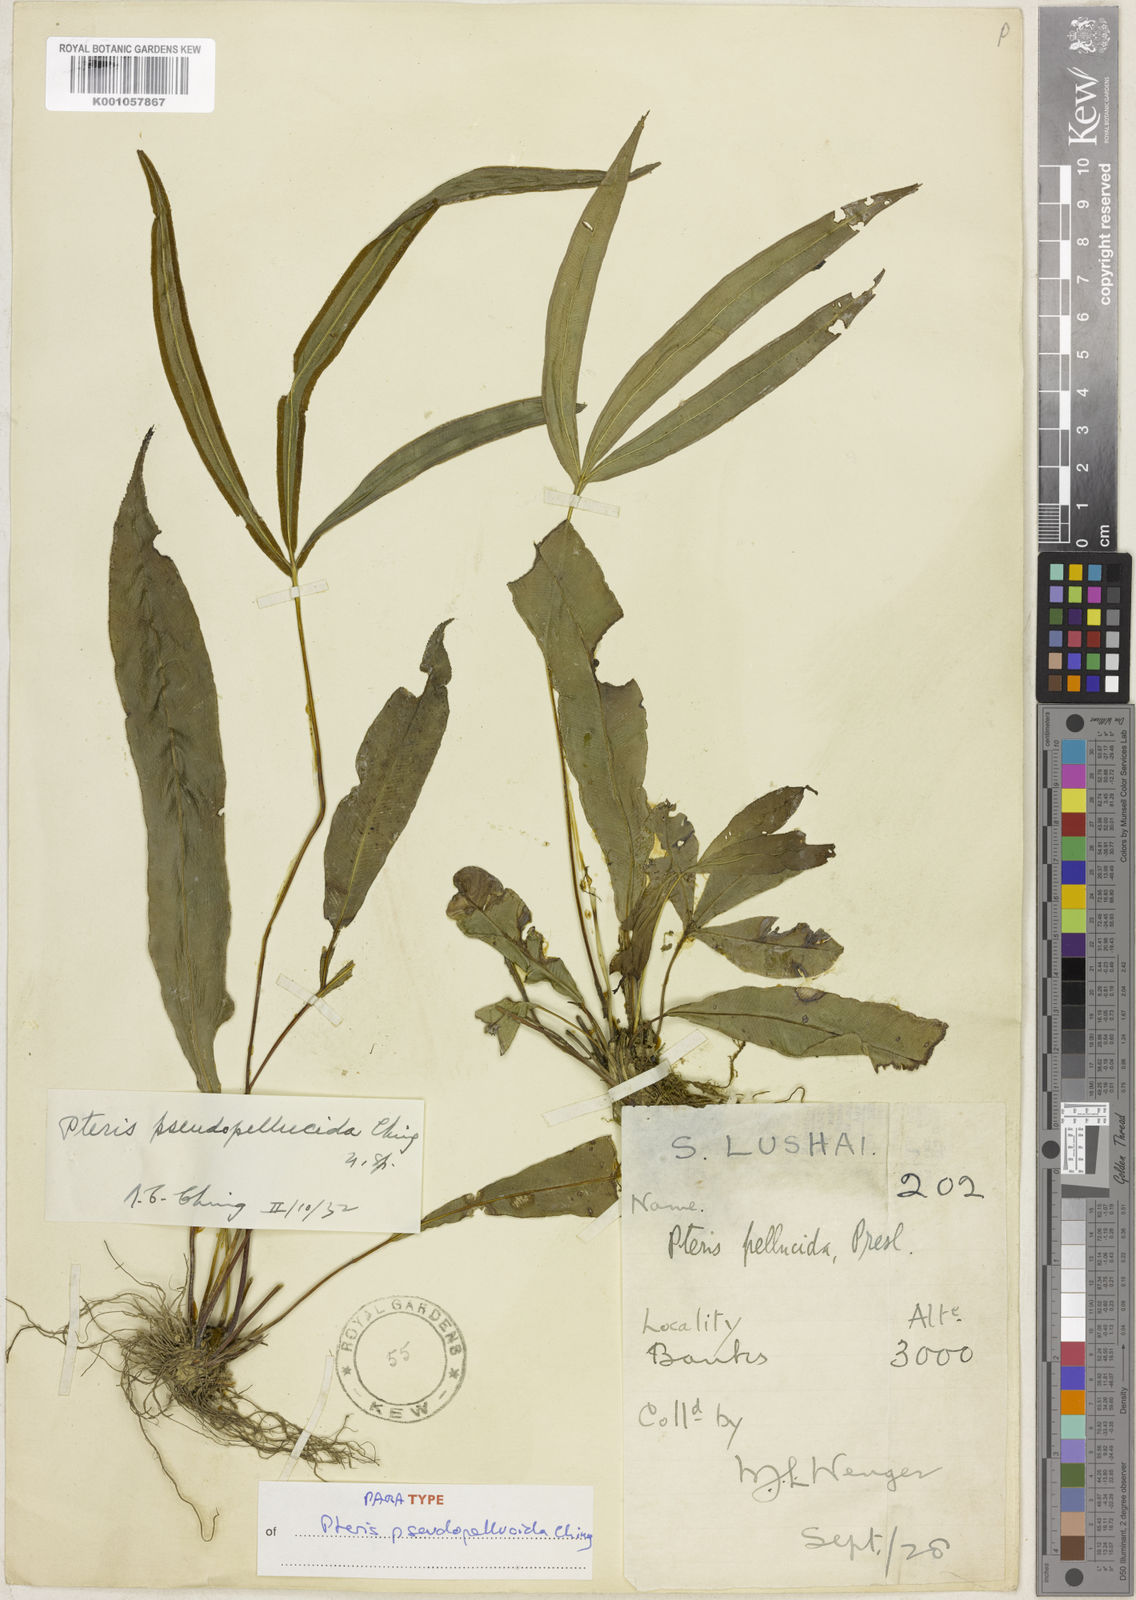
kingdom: Plantae
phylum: Tracheophyta
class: Polypodiopsida
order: Polypodiales
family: Pteridaceae
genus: Pteris
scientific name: Pteris pseudopellucida
